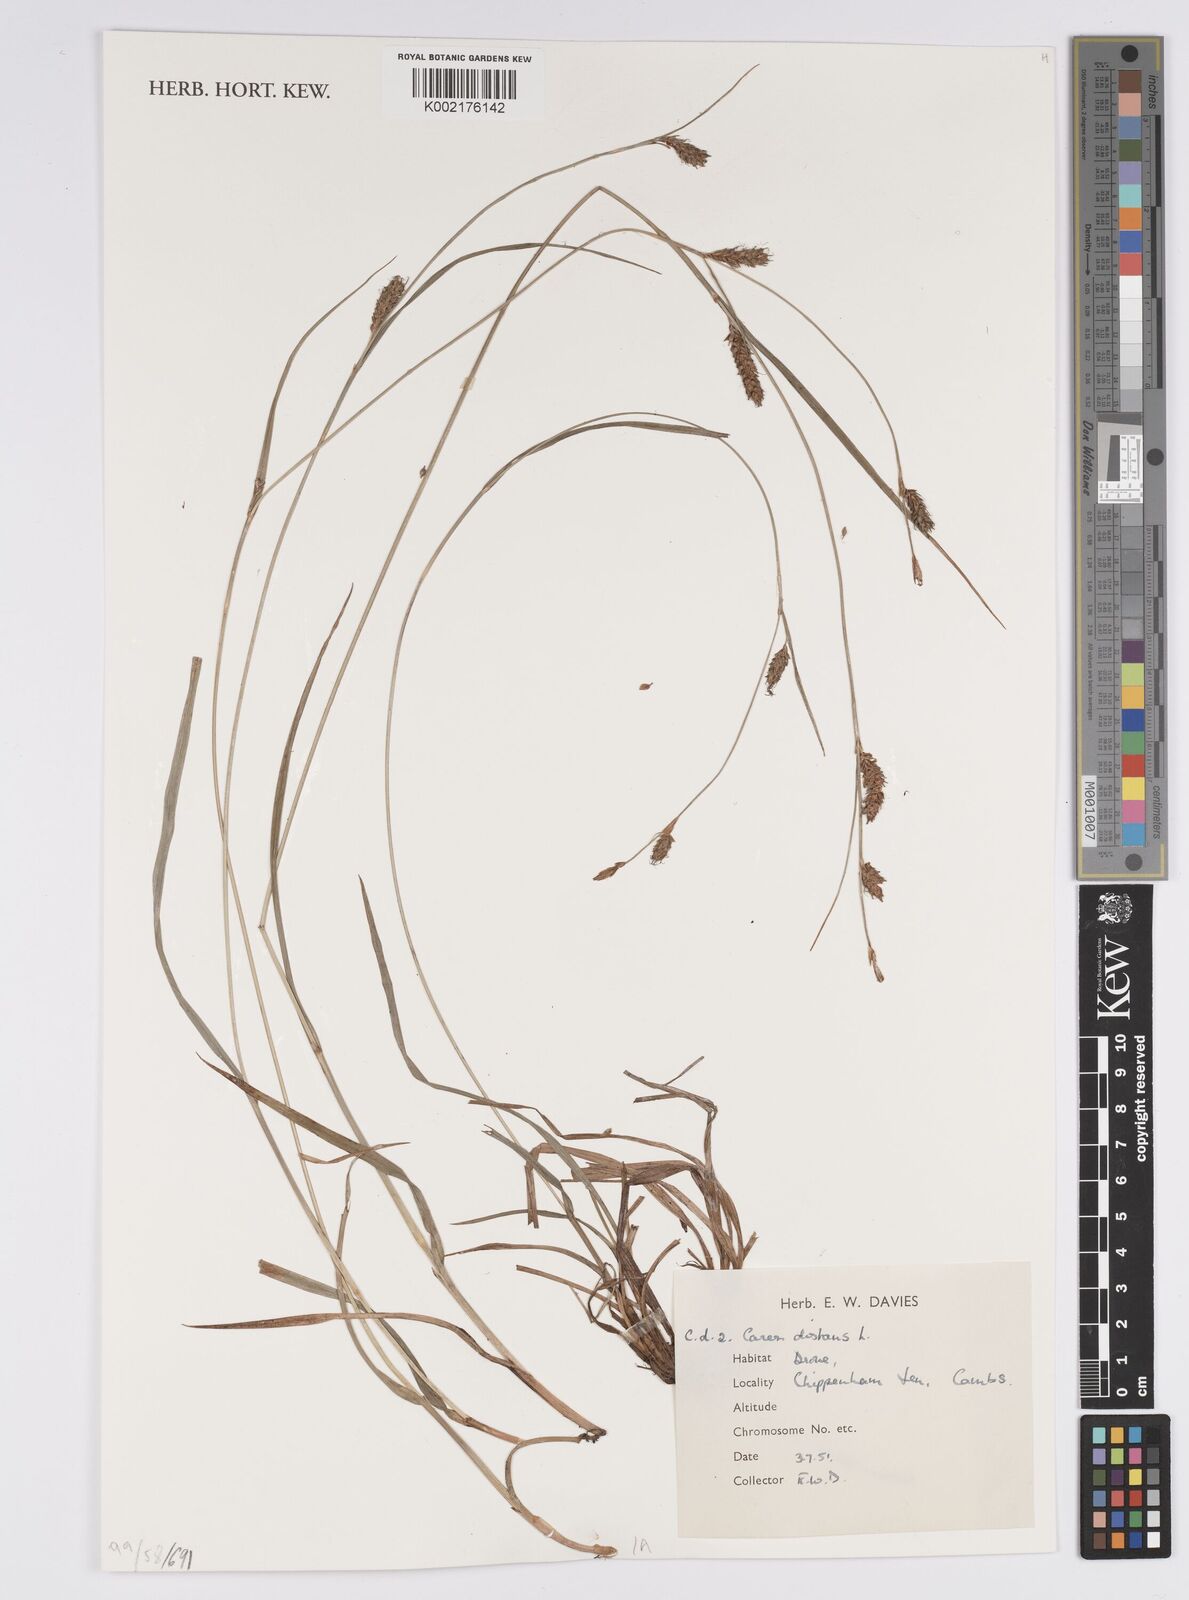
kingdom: Plantae
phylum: Tracheophyta
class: Liliopsida
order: Poales
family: Cyperaceae
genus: Carex
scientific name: Carex distans
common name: Distant sedge
